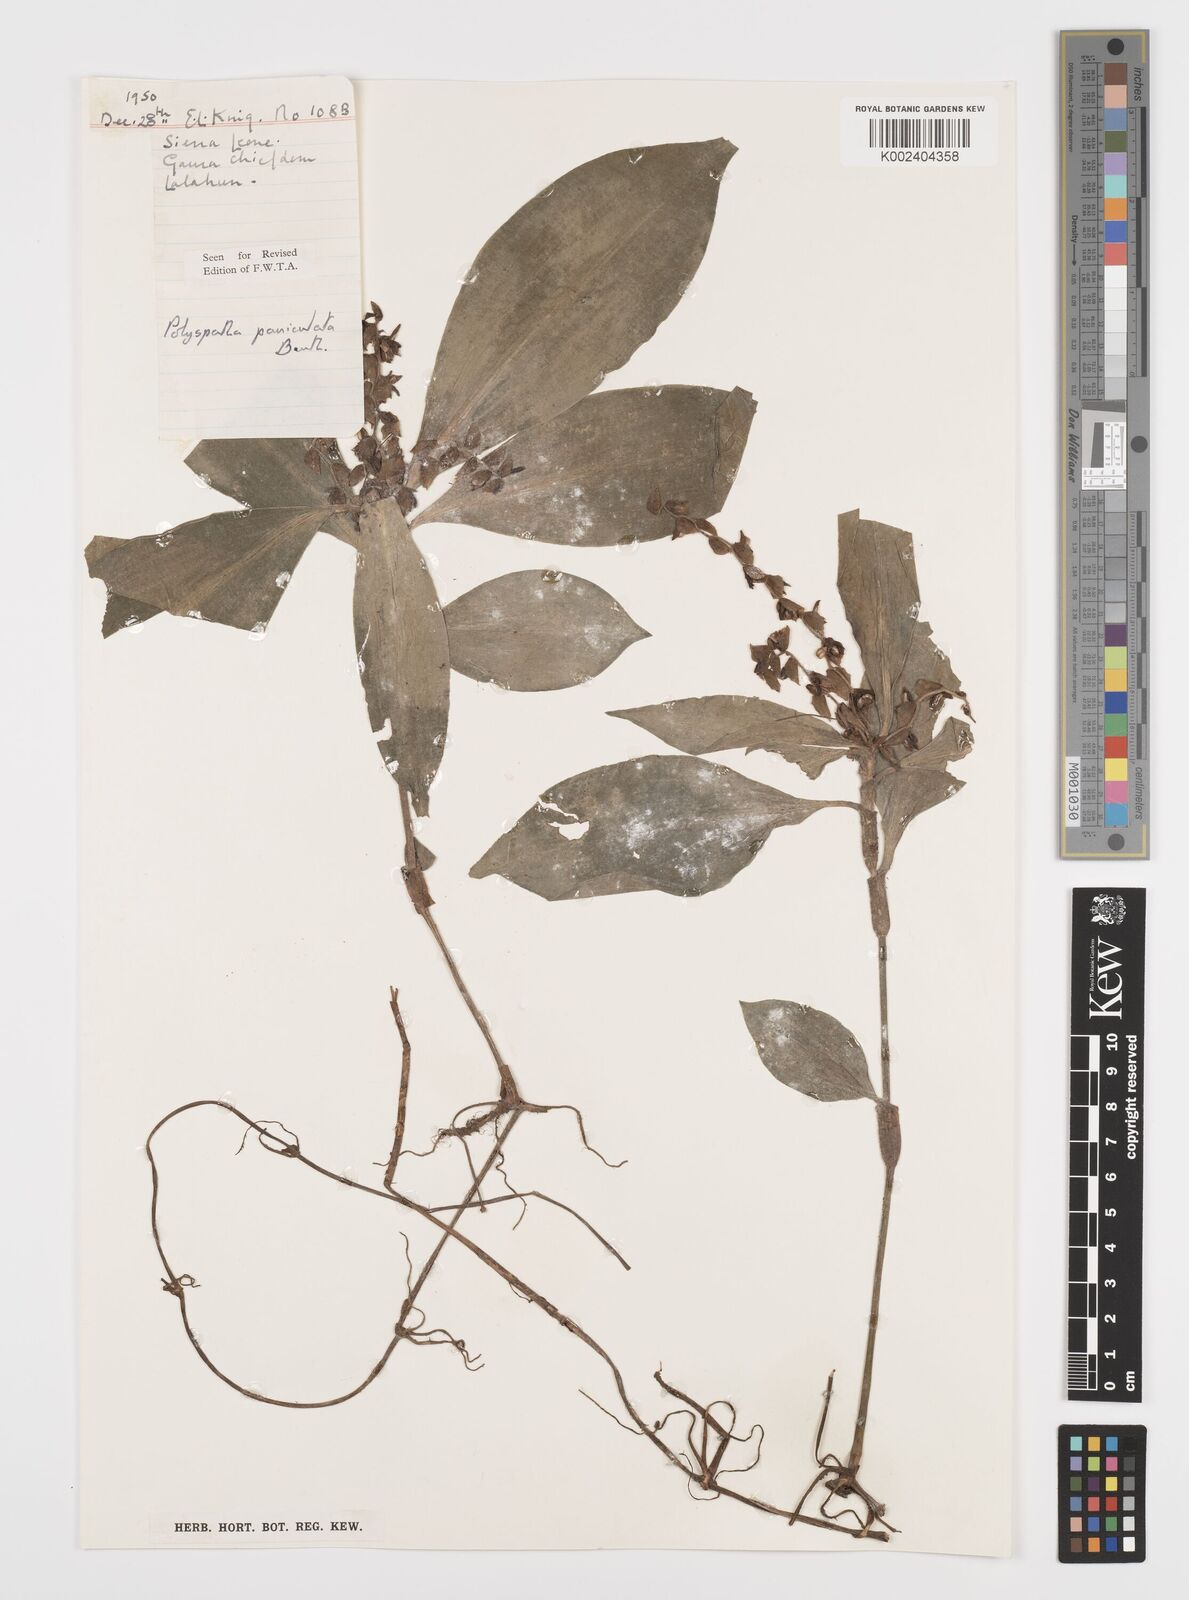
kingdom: Plantae
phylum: Tracheophyta
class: Liliopsida
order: Commelinales
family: Commelinaceae
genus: Polyspatha
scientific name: Polyspatha paniculata
